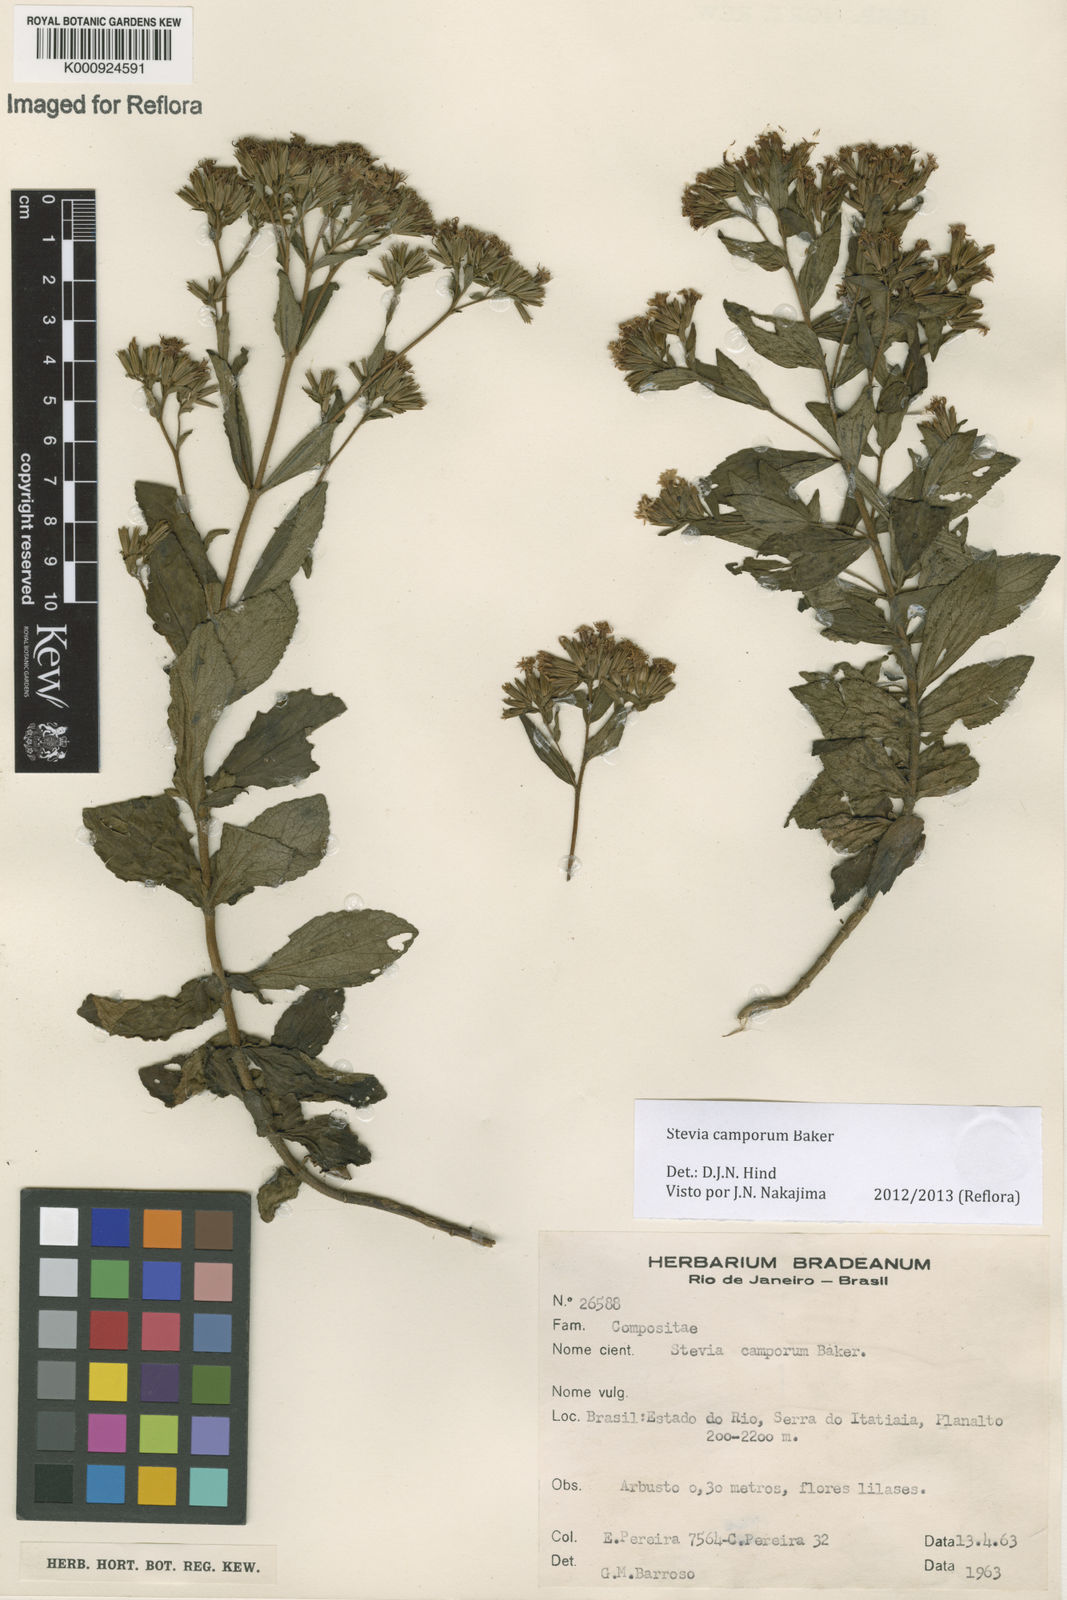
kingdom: Plantae
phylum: Tracheophyta
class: Magnoliopsida
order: Asterales
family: Asteraceae
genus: Stevia
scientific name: Stevia camporum
